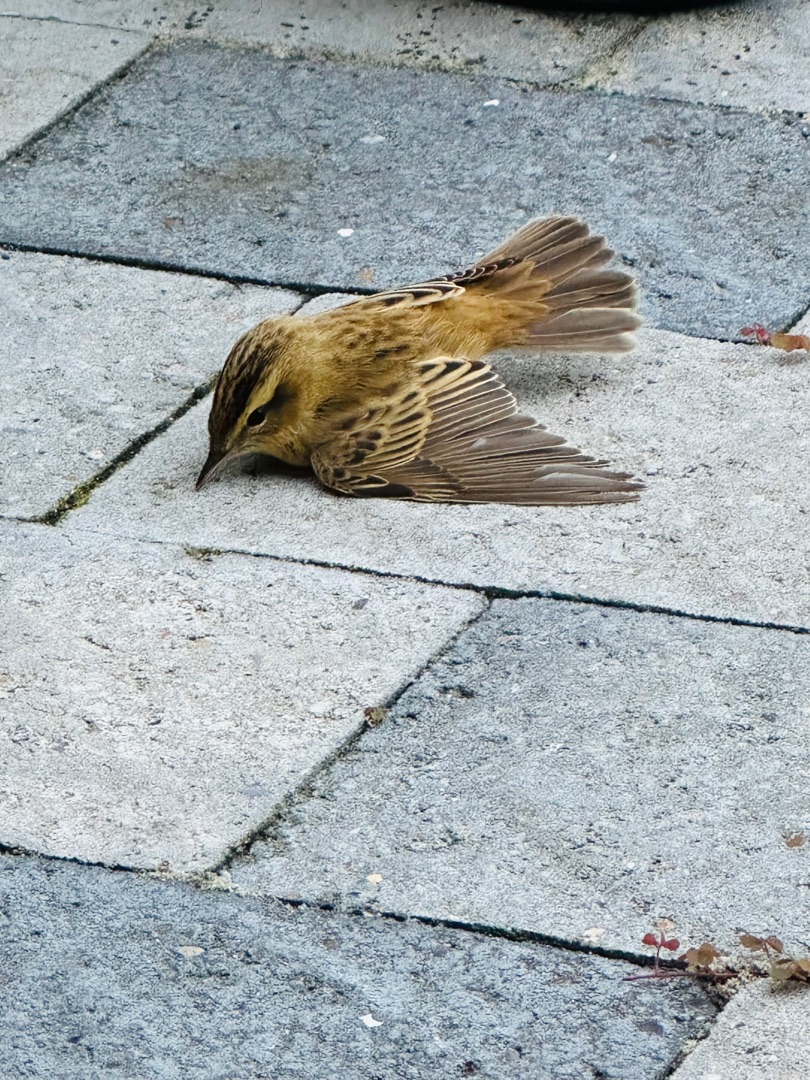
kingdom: Animalia
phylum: Chordata
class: Aves
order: Passeriformes
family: Acrocephalidae
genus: Acrocephalus
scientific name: Acrocephalus schoenobaenus
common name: Sivsanger
